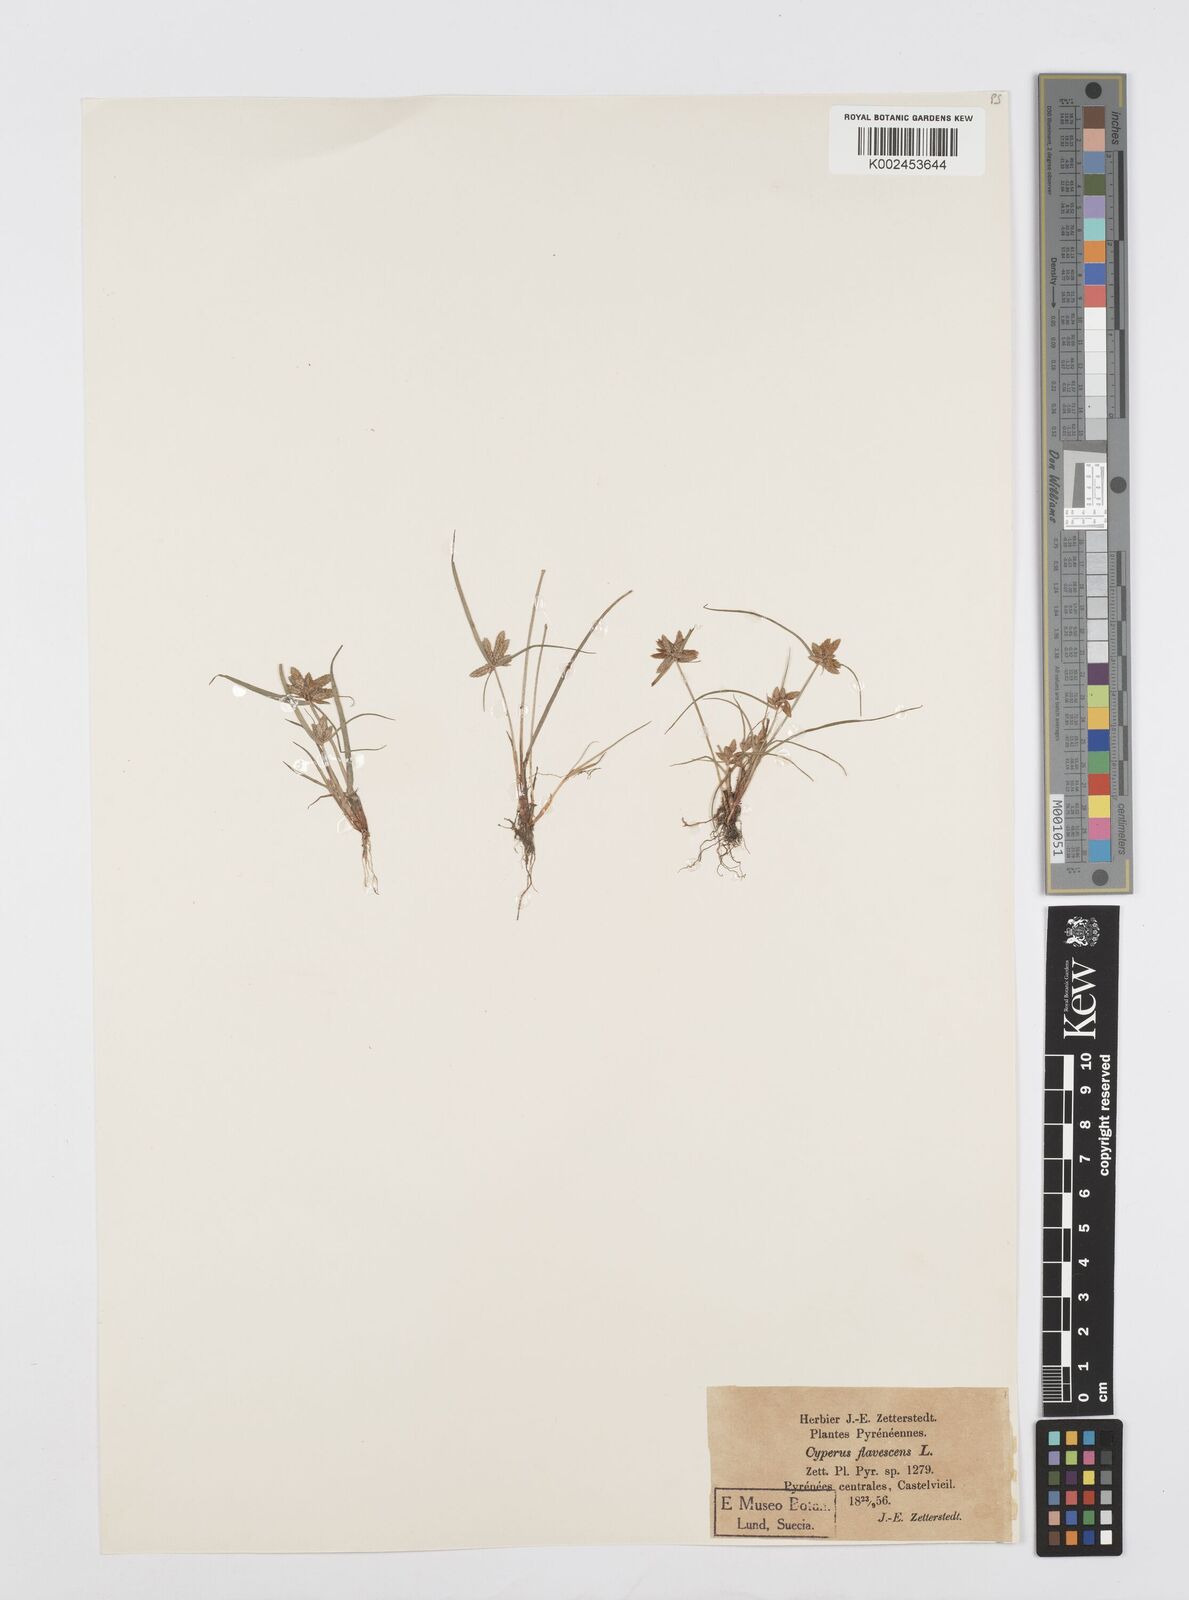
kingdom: Plantae
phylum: Tracheophyta
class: Liliopsida
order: Poales
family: Cyperaceae
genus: Cyperus
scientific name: Cyperus flavescens
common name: Yellow galingale
